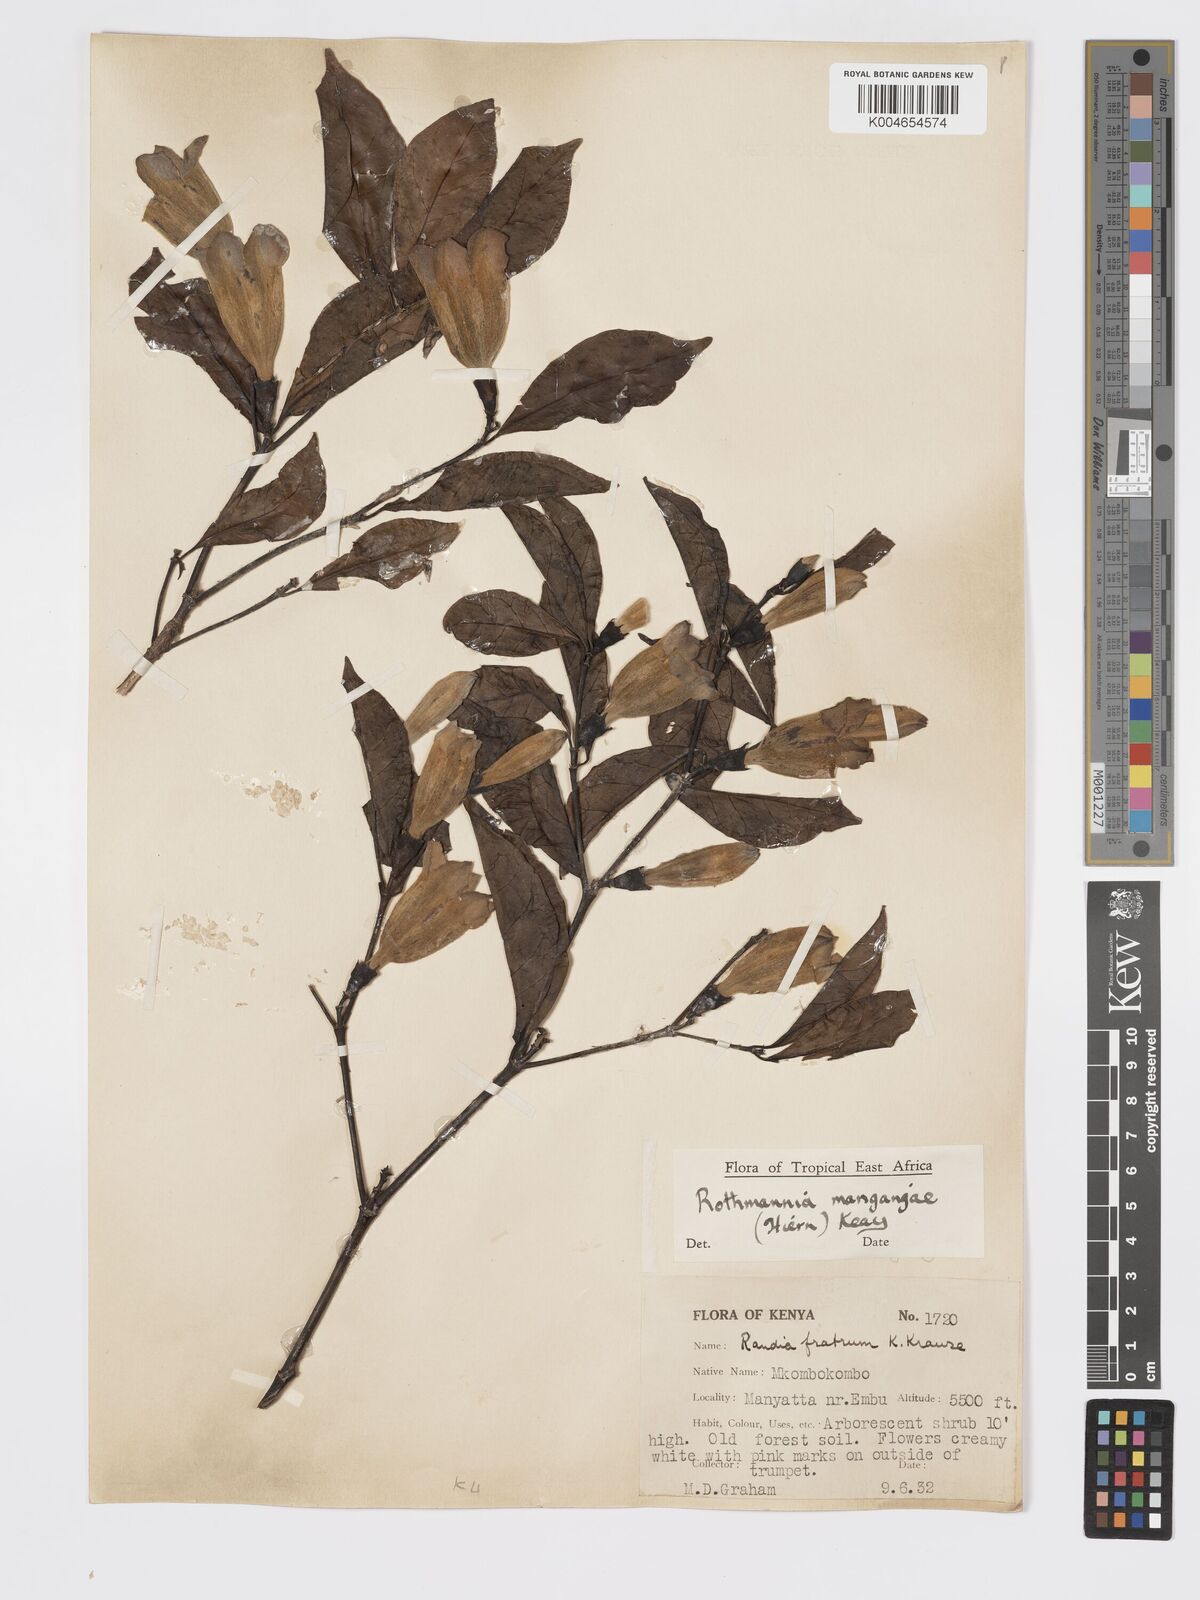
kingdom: Plantae
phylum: Tracheophyta
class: Magnoliopsida
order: Gentianales
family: Rubiaceae
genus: Rothmannia
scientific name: Rothmannia manganjae
